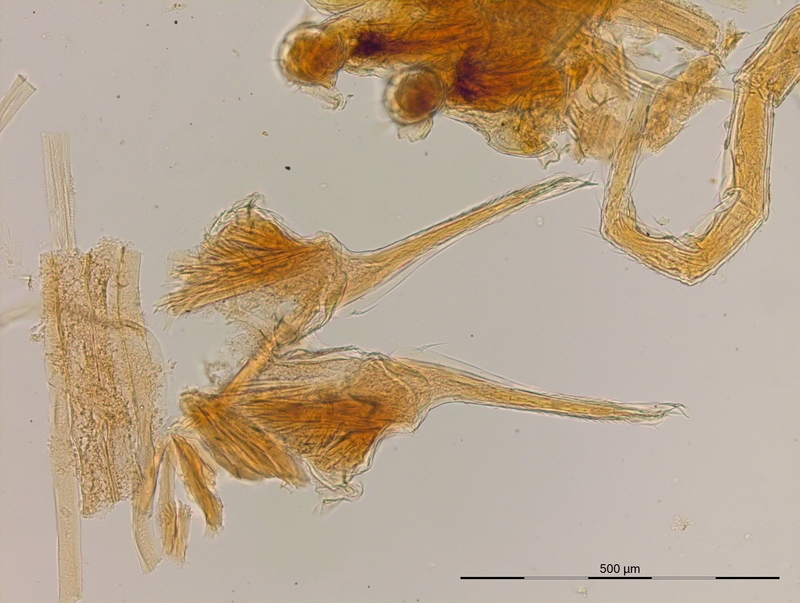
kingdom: Animalia
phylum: Arthropoda
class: Diplopoda
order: Julida
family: Nemasomatidae
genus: Antrokoreana
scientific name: Antrokoreana takakuwai
